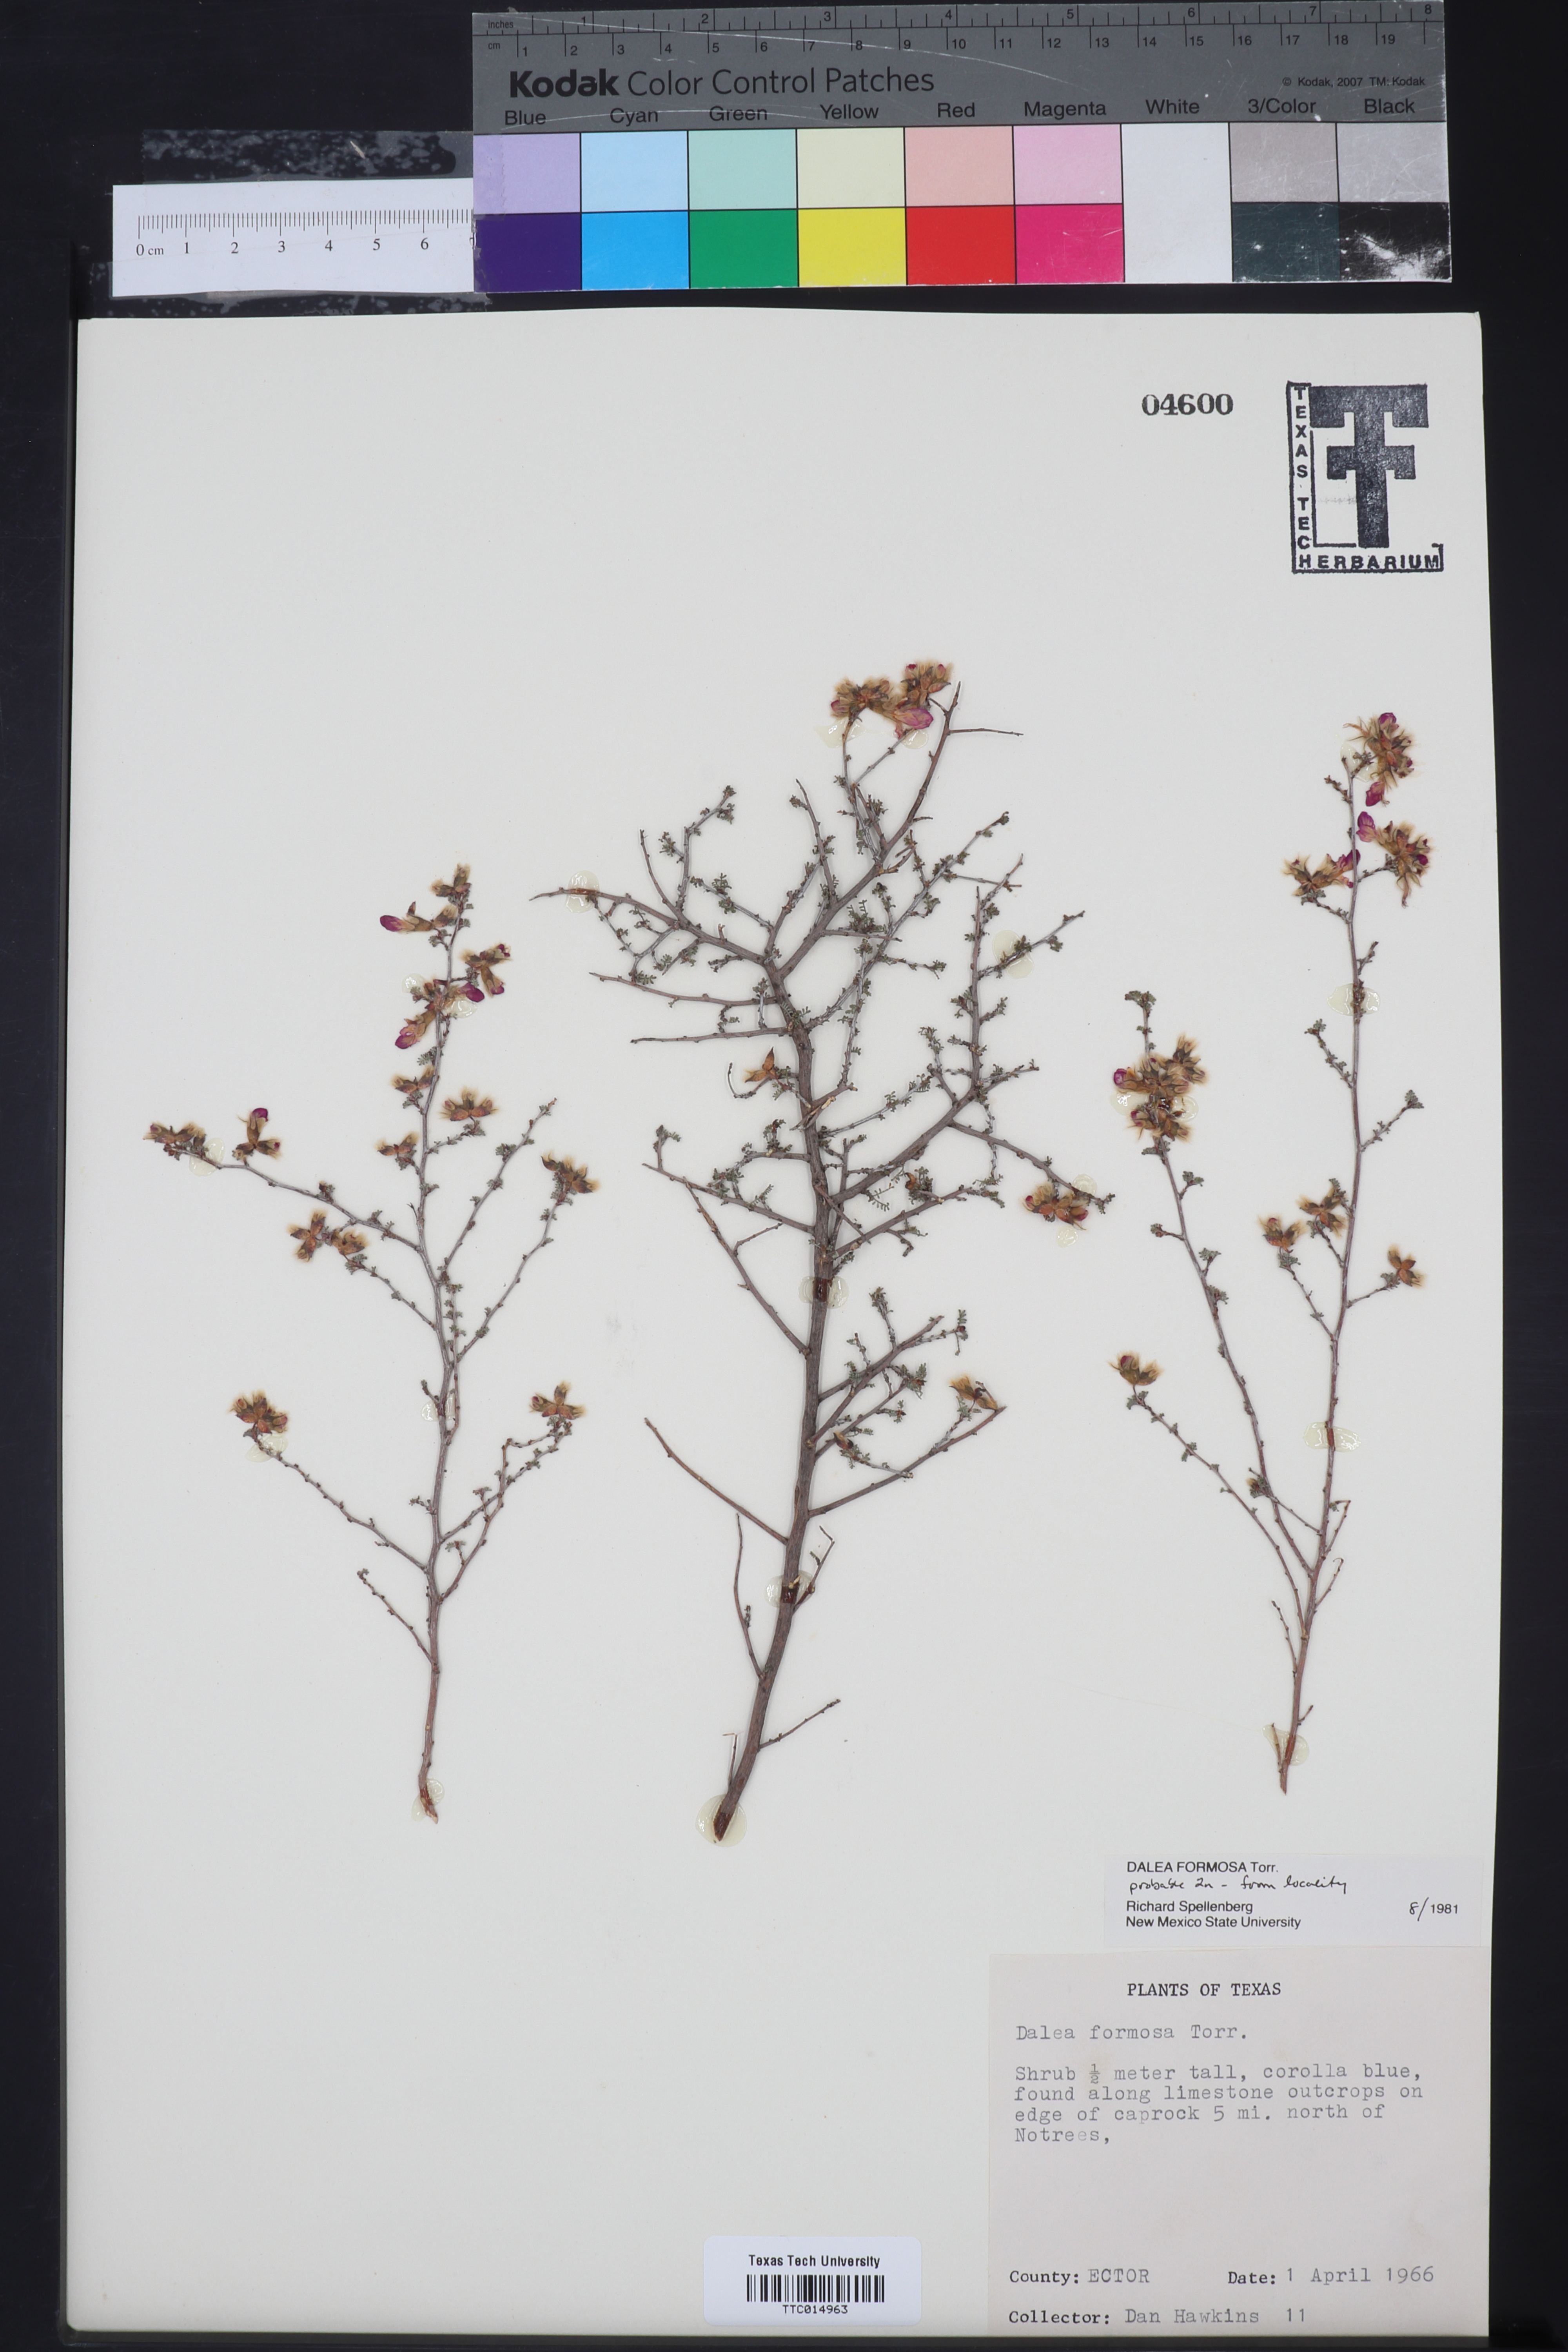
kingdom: Plantae
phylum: Tracheophyta
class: Magnoliopsida
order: Fabales
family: Fabaceae
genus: Dalea
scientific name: Dalea formosa
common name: Feather-plume dalea
